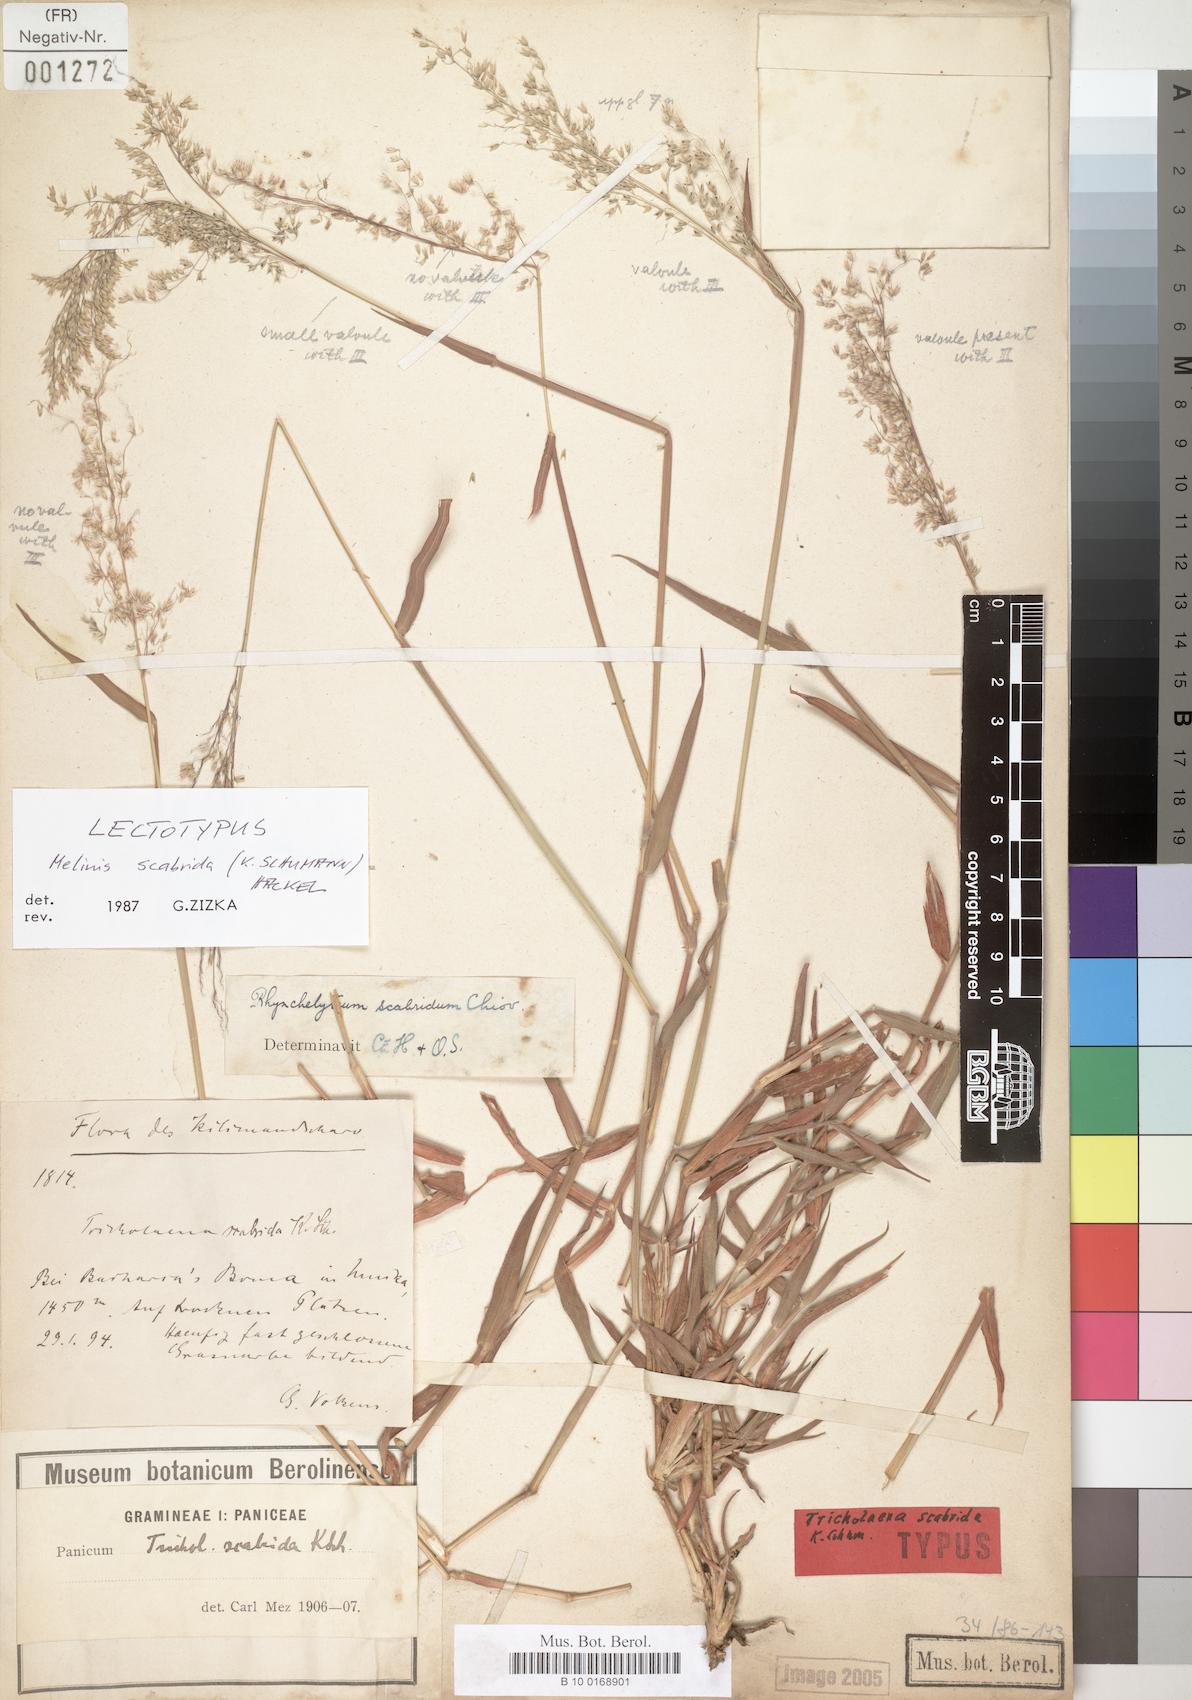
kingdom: Plantae
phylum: Tracheophyta
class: Liliopsida
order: Poales
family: Poaceae
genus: Melinis
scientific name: Melinis scabrida
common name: Millet grass
